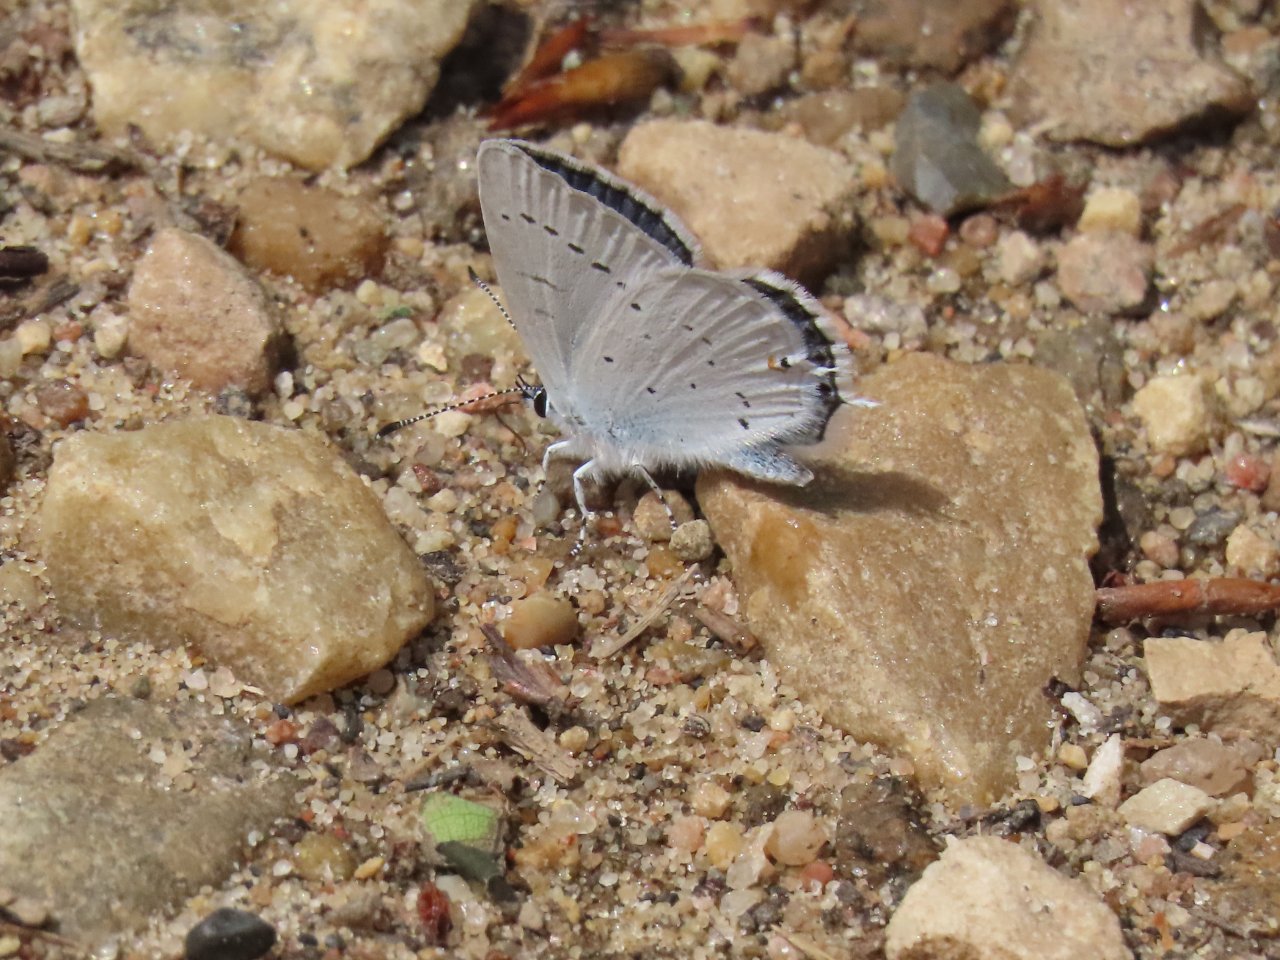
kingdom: Animalia
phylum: Arthropoda
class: Insecta
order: Lepidoptera
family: Lycaenidae
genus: Elkalyce
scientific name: Elkalyce amyntula
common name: Western Tailed-Blue
